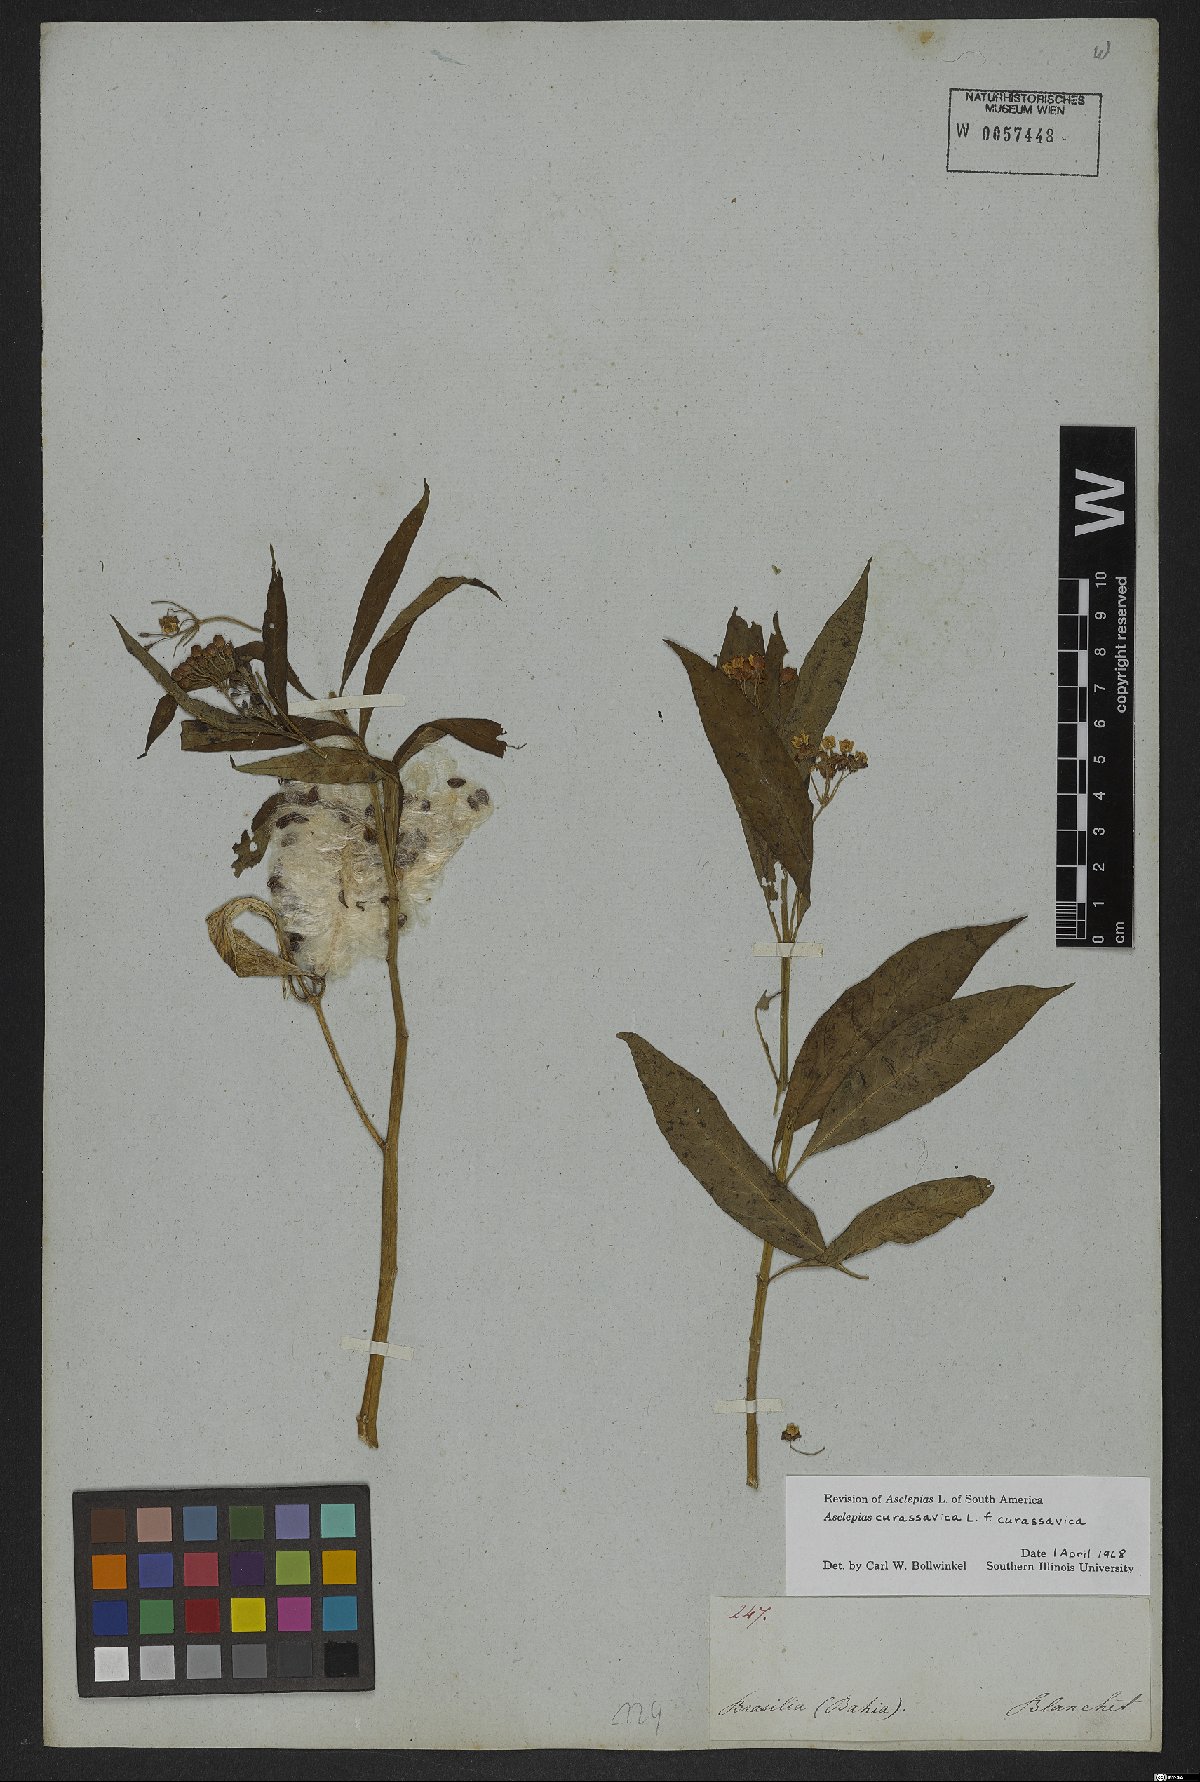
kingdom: Plantae
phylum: Tracheophyta
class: Magnoliopsida
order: Gentianales
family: Apocynaceae
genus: Asclepias
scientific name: Asclepias curassavica
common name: Bloodflower
